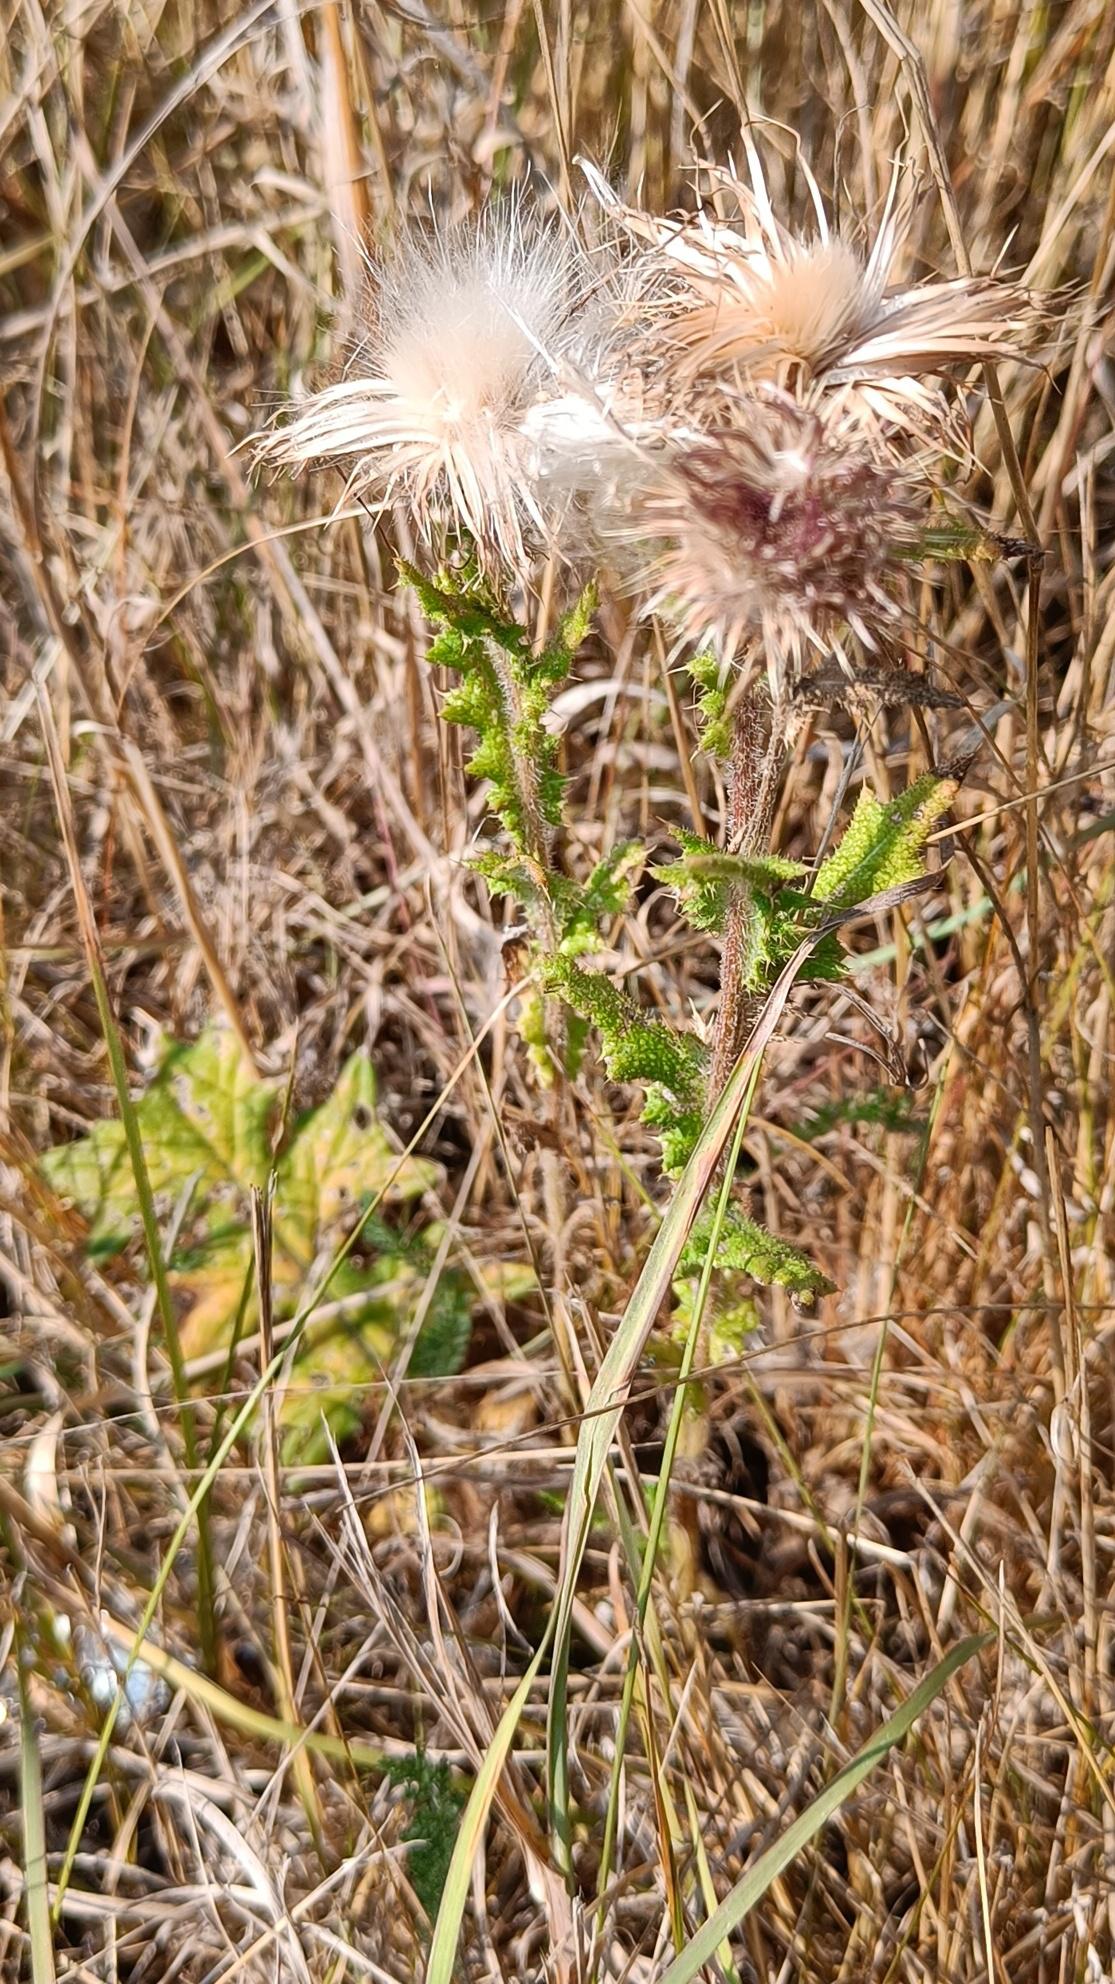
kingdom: Plantae
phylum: Tracheophyta
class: Magnoliopsida
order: Asterales
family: Asteraceae
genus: Cirsium
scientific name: Cirsium vulgare
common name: Horse-tidsel
